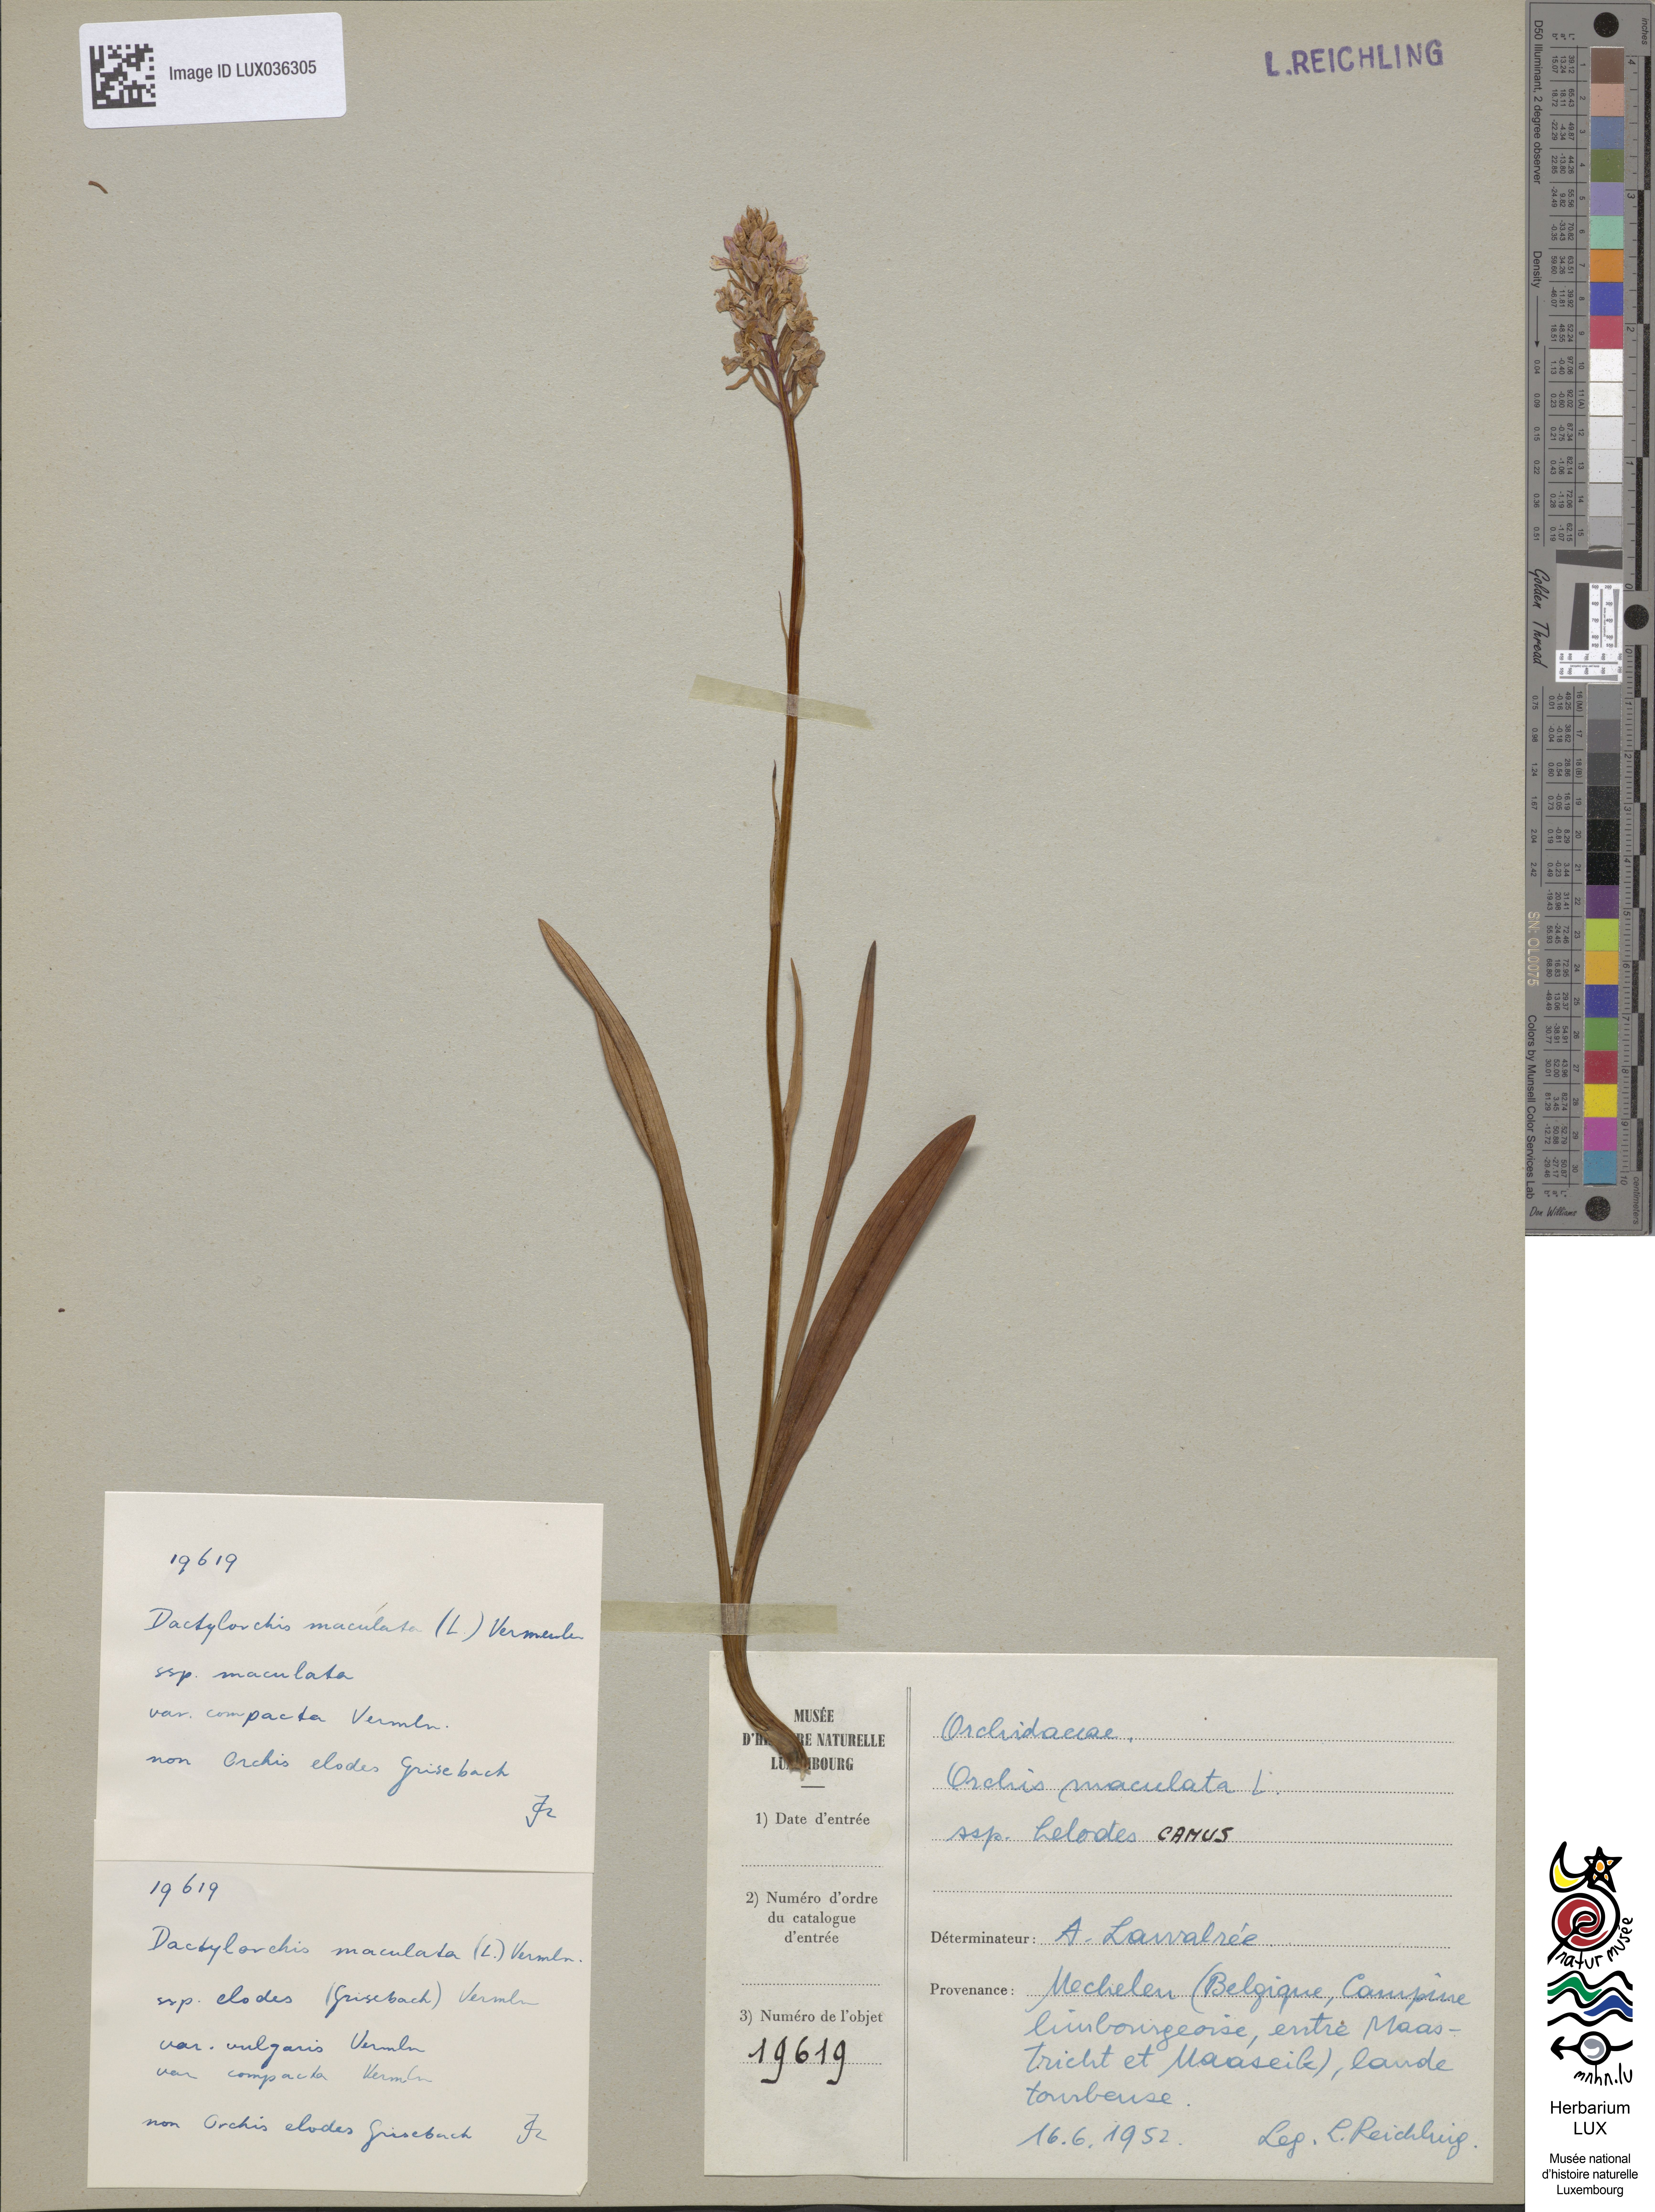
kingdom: Plantae
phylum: Tracheophyta
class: Liliopsida
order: Asparagales
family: Orchidaceae
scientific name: Orchidaceae
